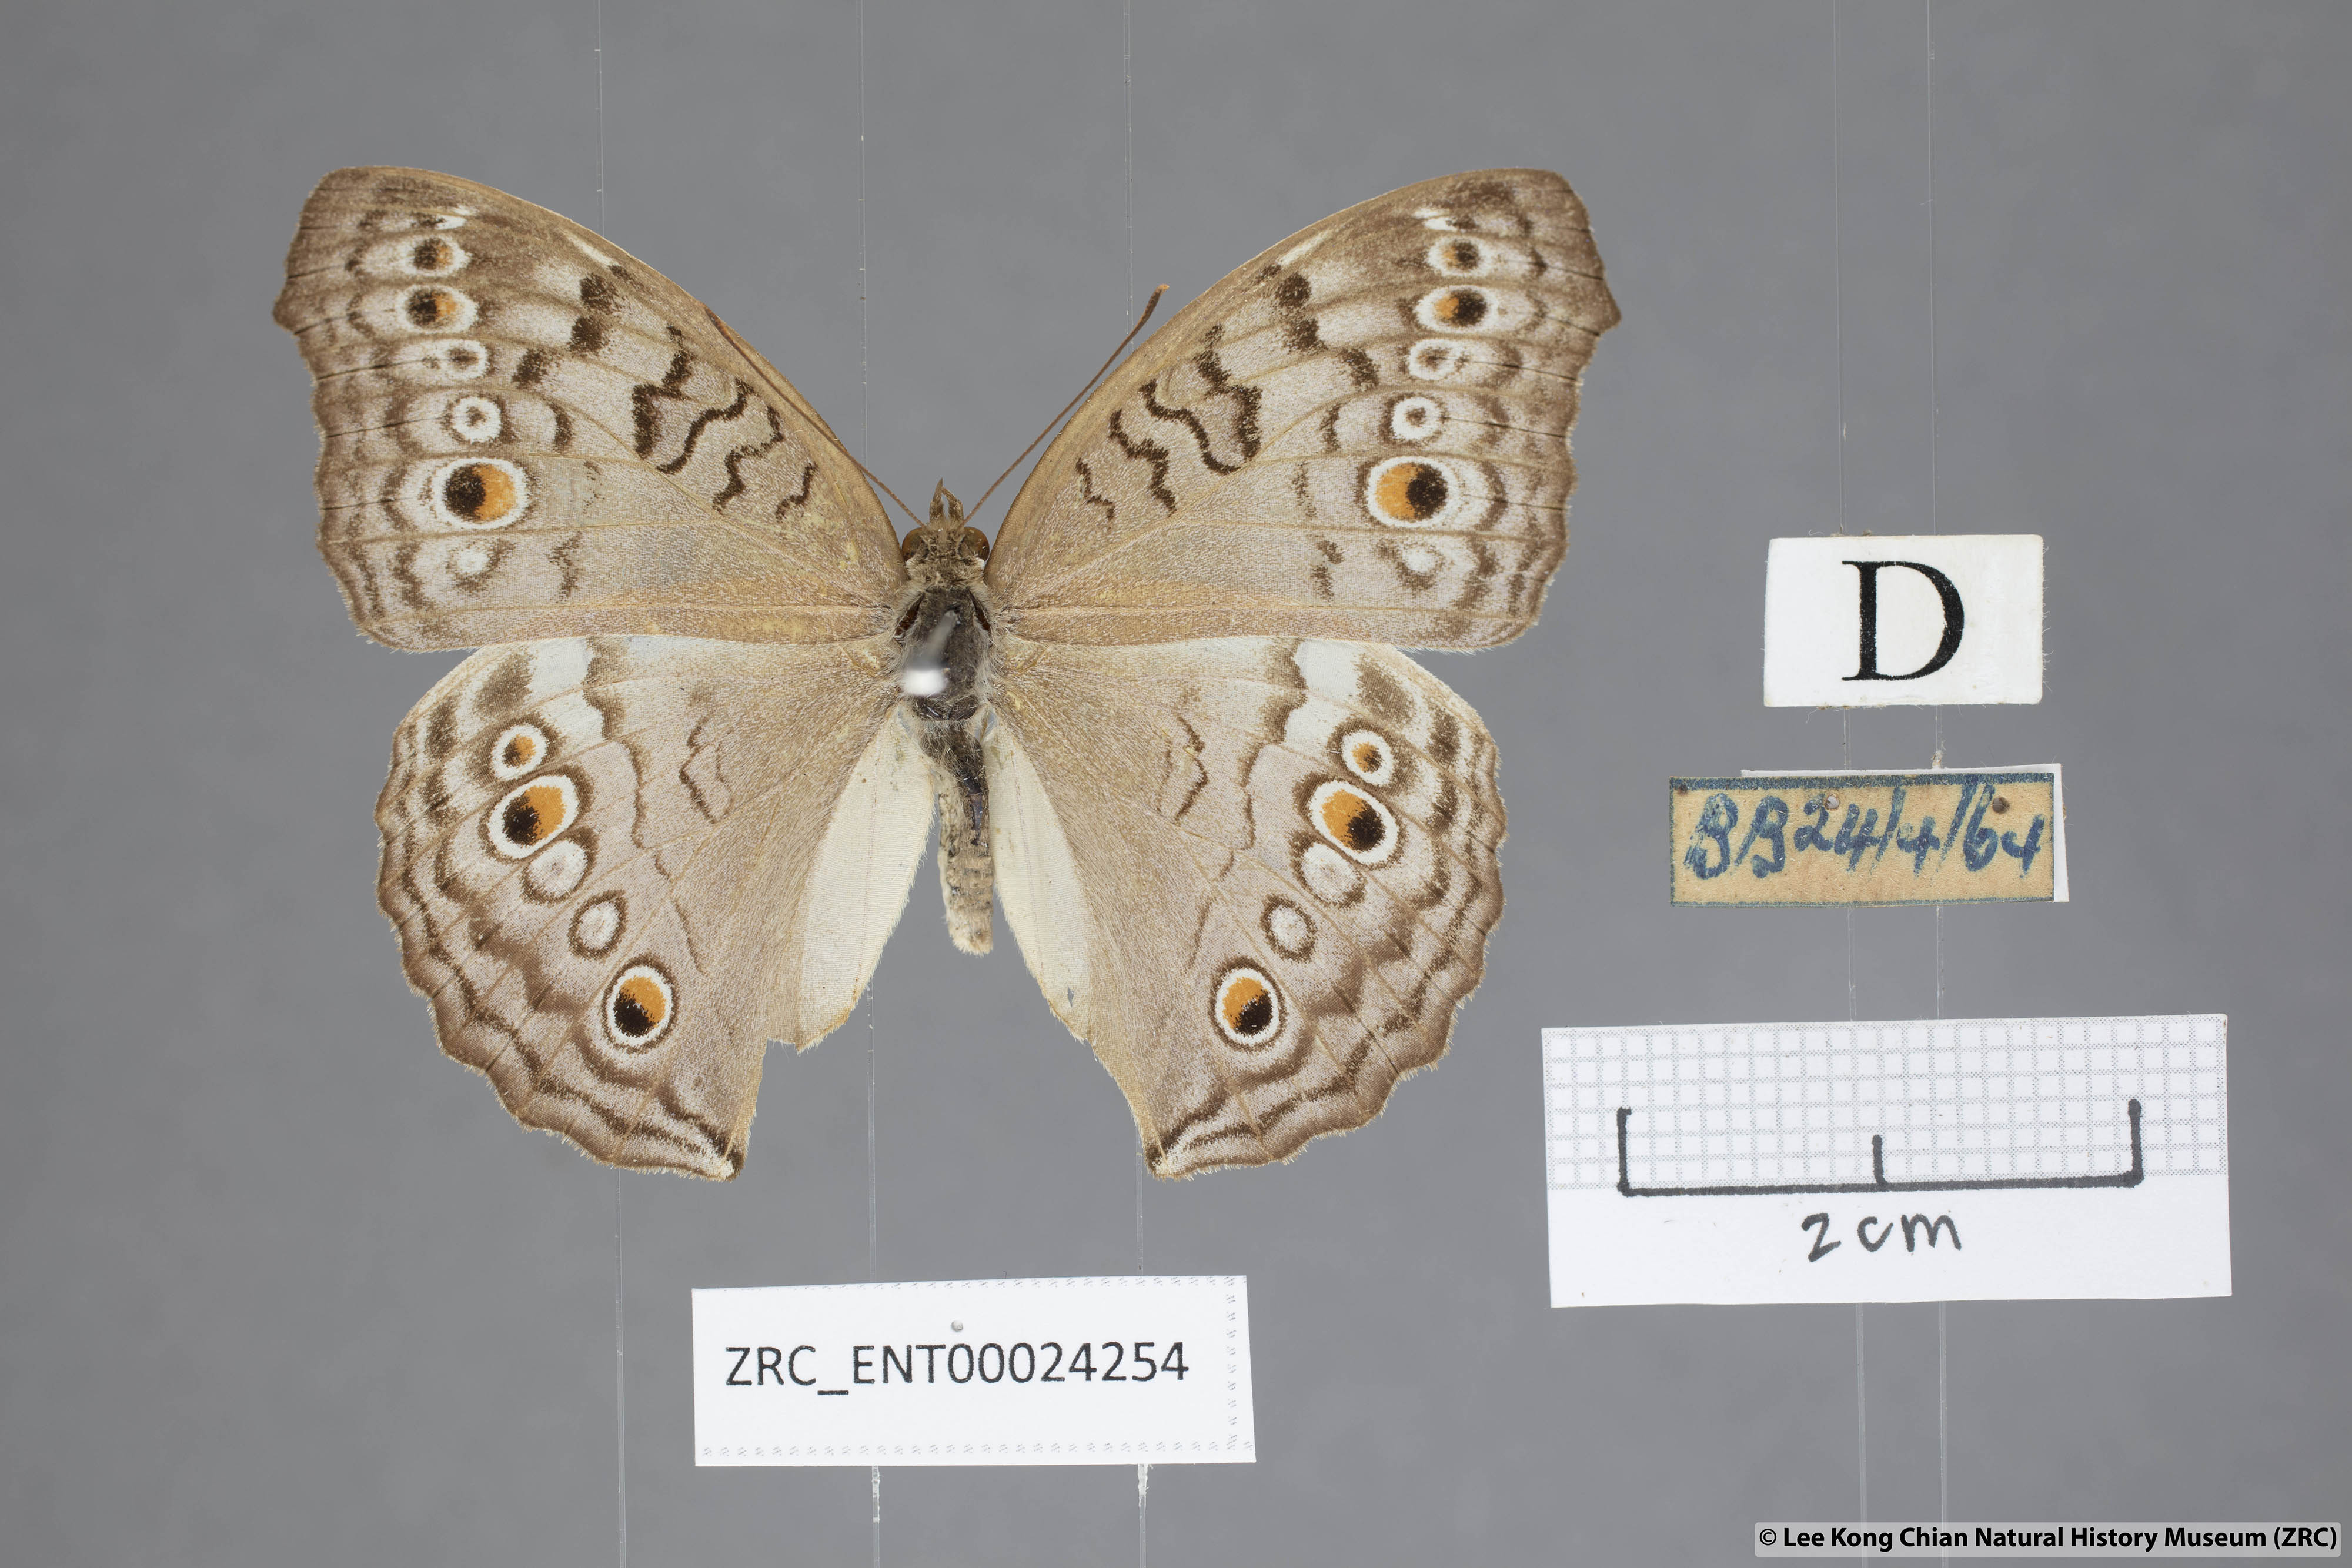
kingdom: Animalia
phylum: Arthropoda
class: Insecta
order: Lepidoptera
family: Nymphalidae
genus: Junonia
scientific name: Junonia atlites
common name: Grey pansy
